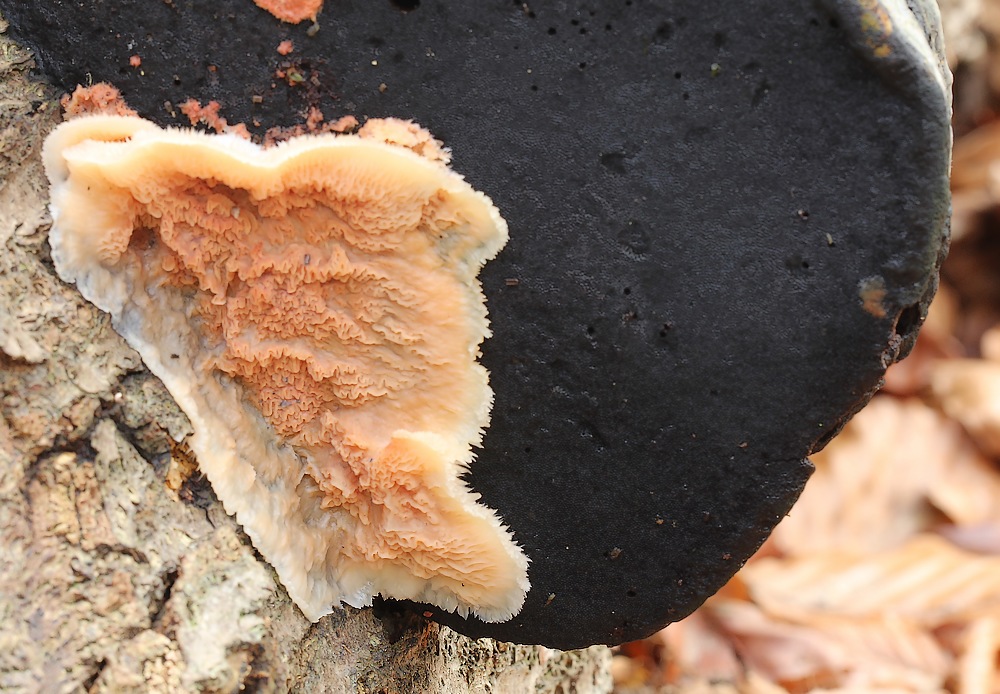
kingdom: Fungi
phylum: Basidiomycota
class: Agaricomycetes
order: Polyporales
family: Meruliaceae
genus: Phlebia
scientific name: Phlebia tremellosa
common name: bævrende åresvamp
